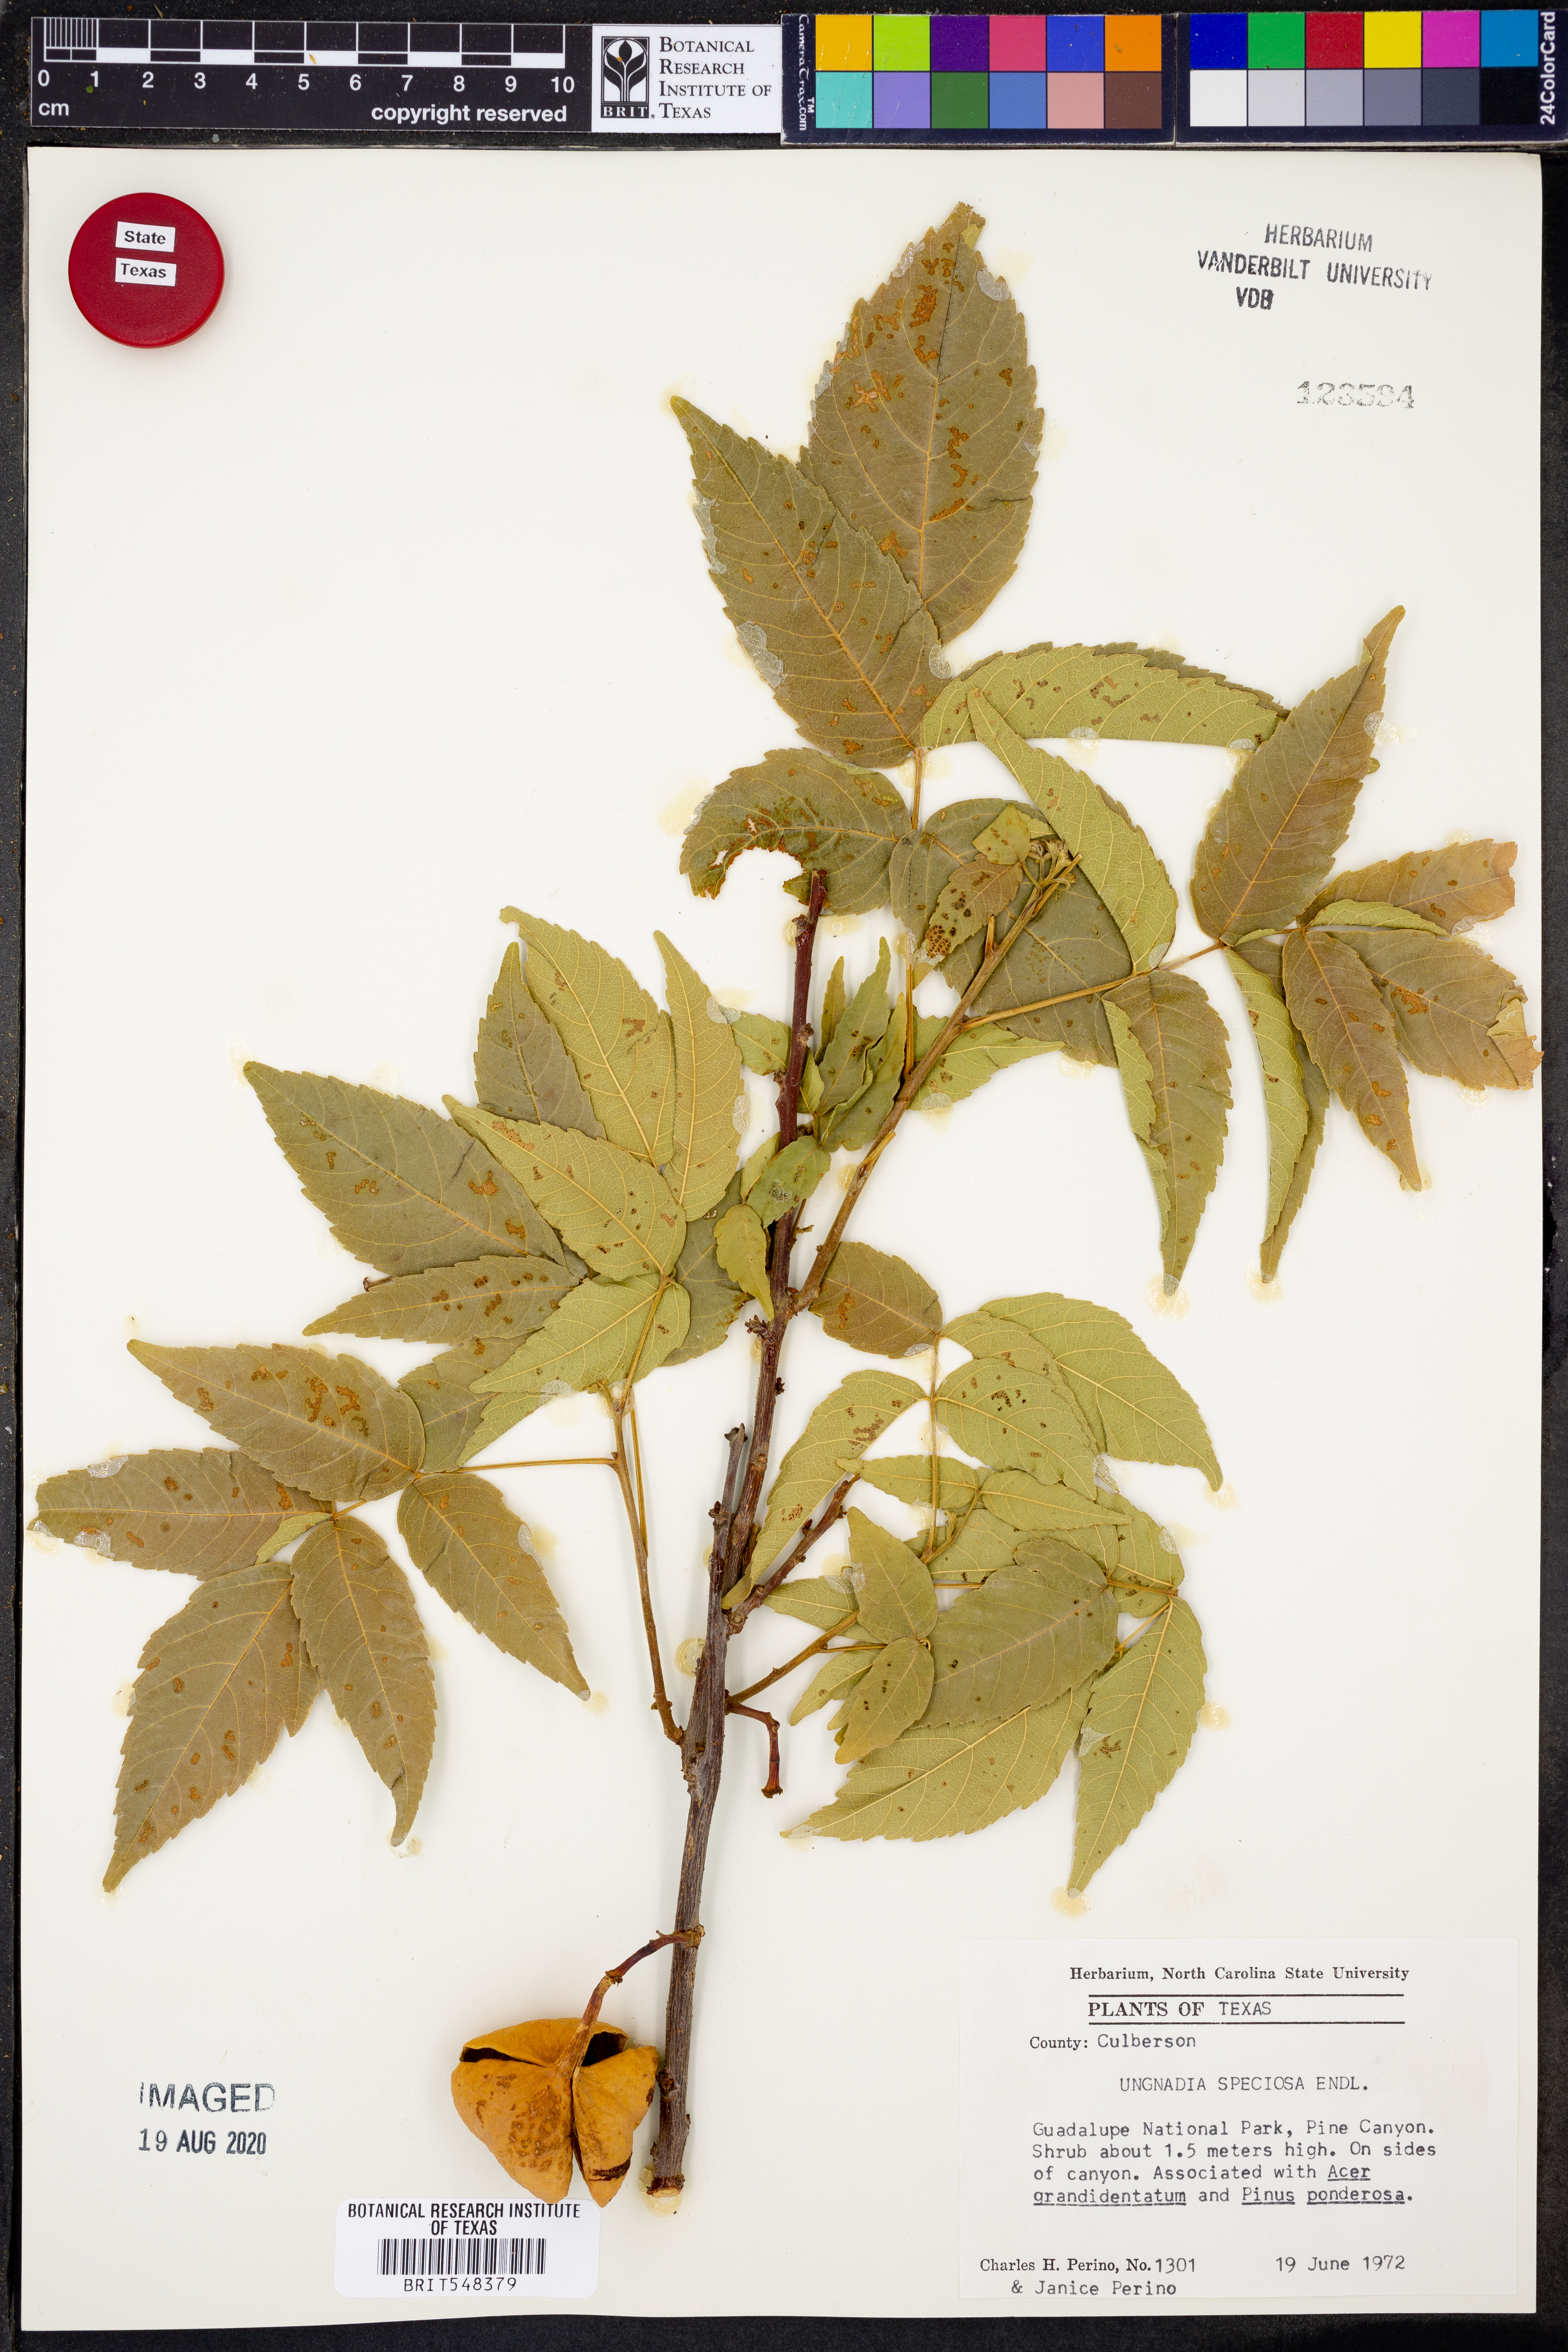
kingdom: Plantae
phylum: Tracheophyta
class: Magnoliopsida
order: Sapindales
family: Sapindaceae
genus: Ungnadia
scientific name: Ungnadia speciosa
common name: Texas-buckeye
